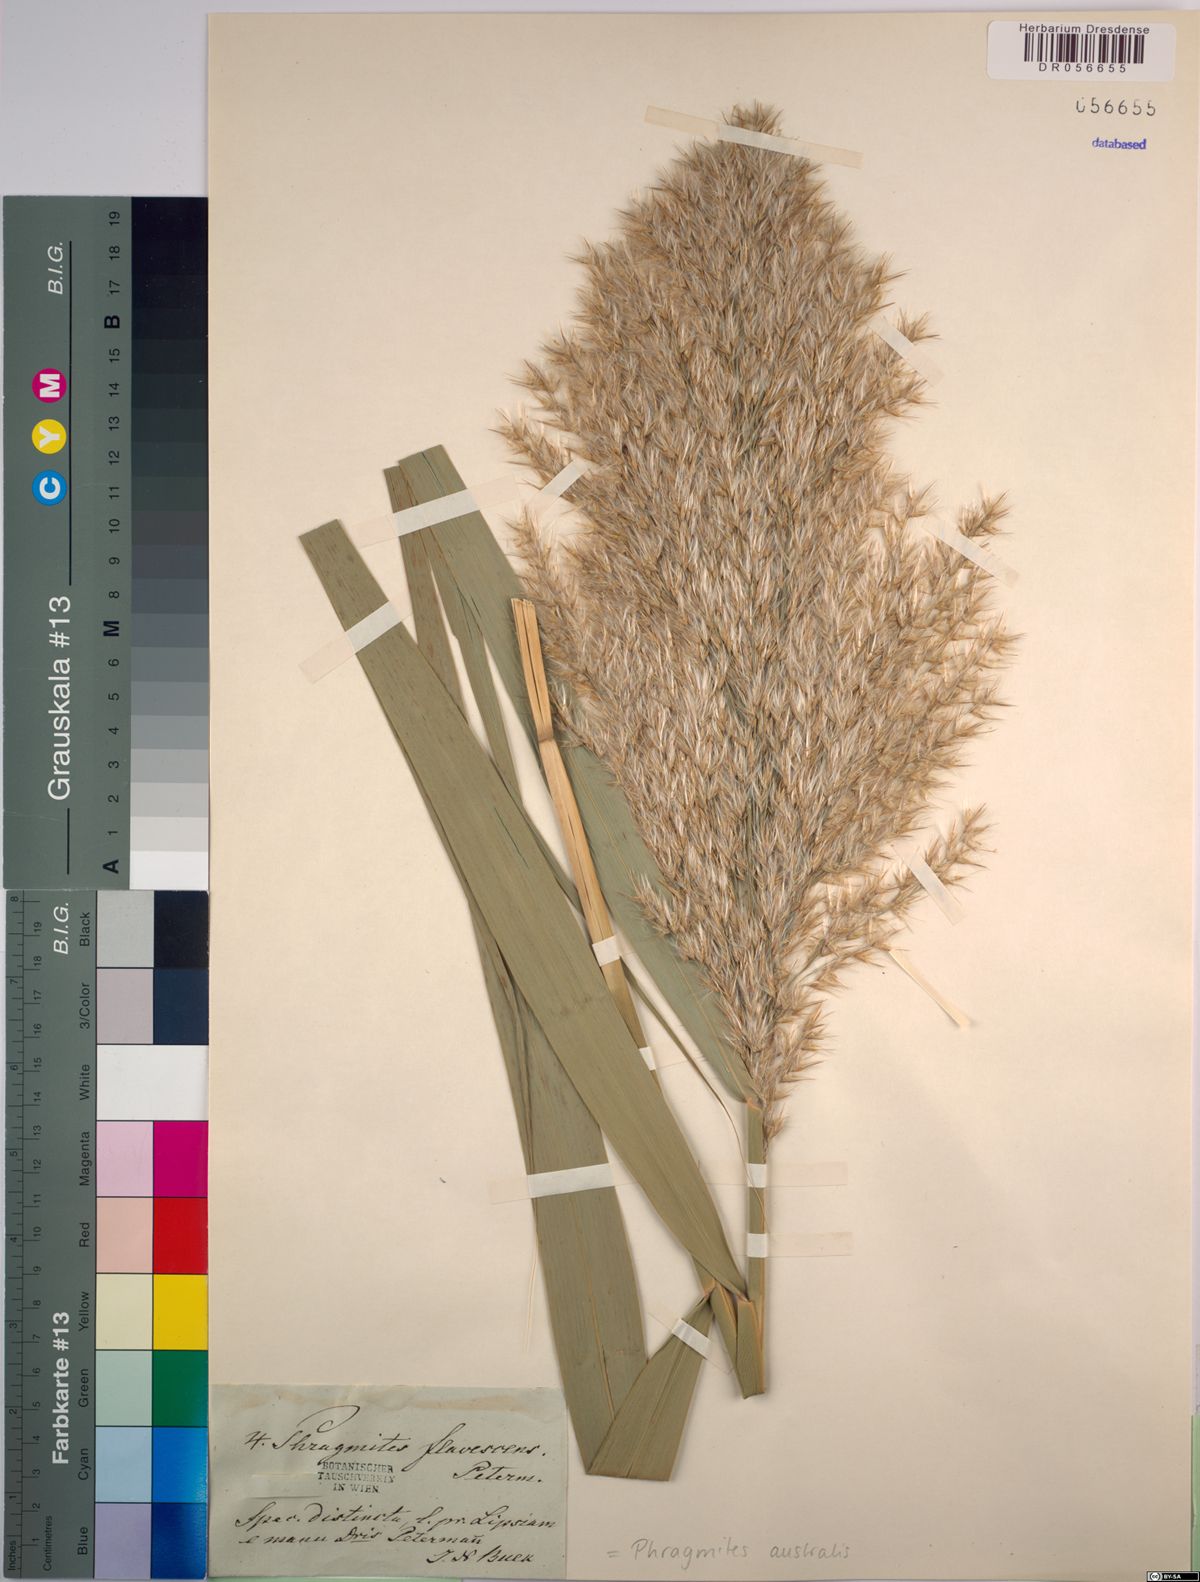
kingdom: Plantae
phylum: Tracheophyta
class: Liliopsida
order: Poales
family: Poaceae
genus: Phragmites
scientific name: Phragmites australis
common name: Common reed
